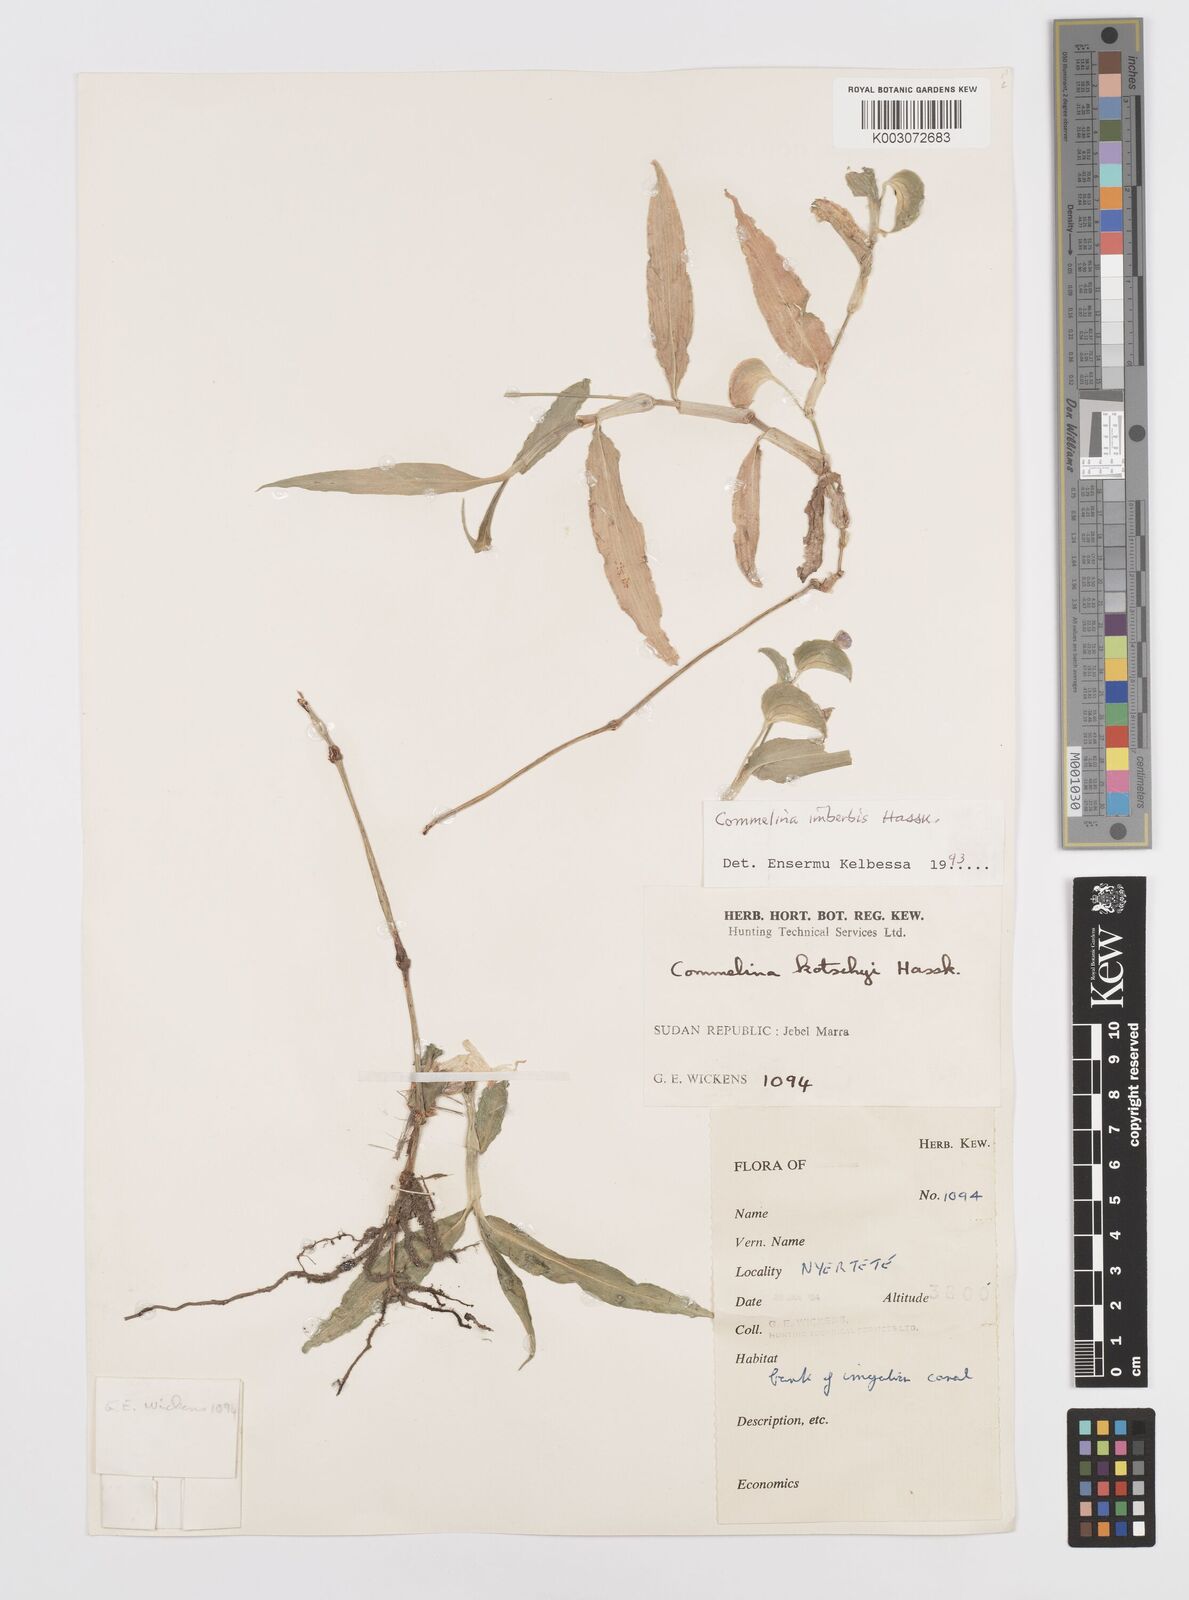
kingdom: Plantae
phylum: Tracheophyta
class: Liliopsida
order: Commelinales
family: Commelinaceae
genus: Commelina
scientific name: Commelina imberbis
